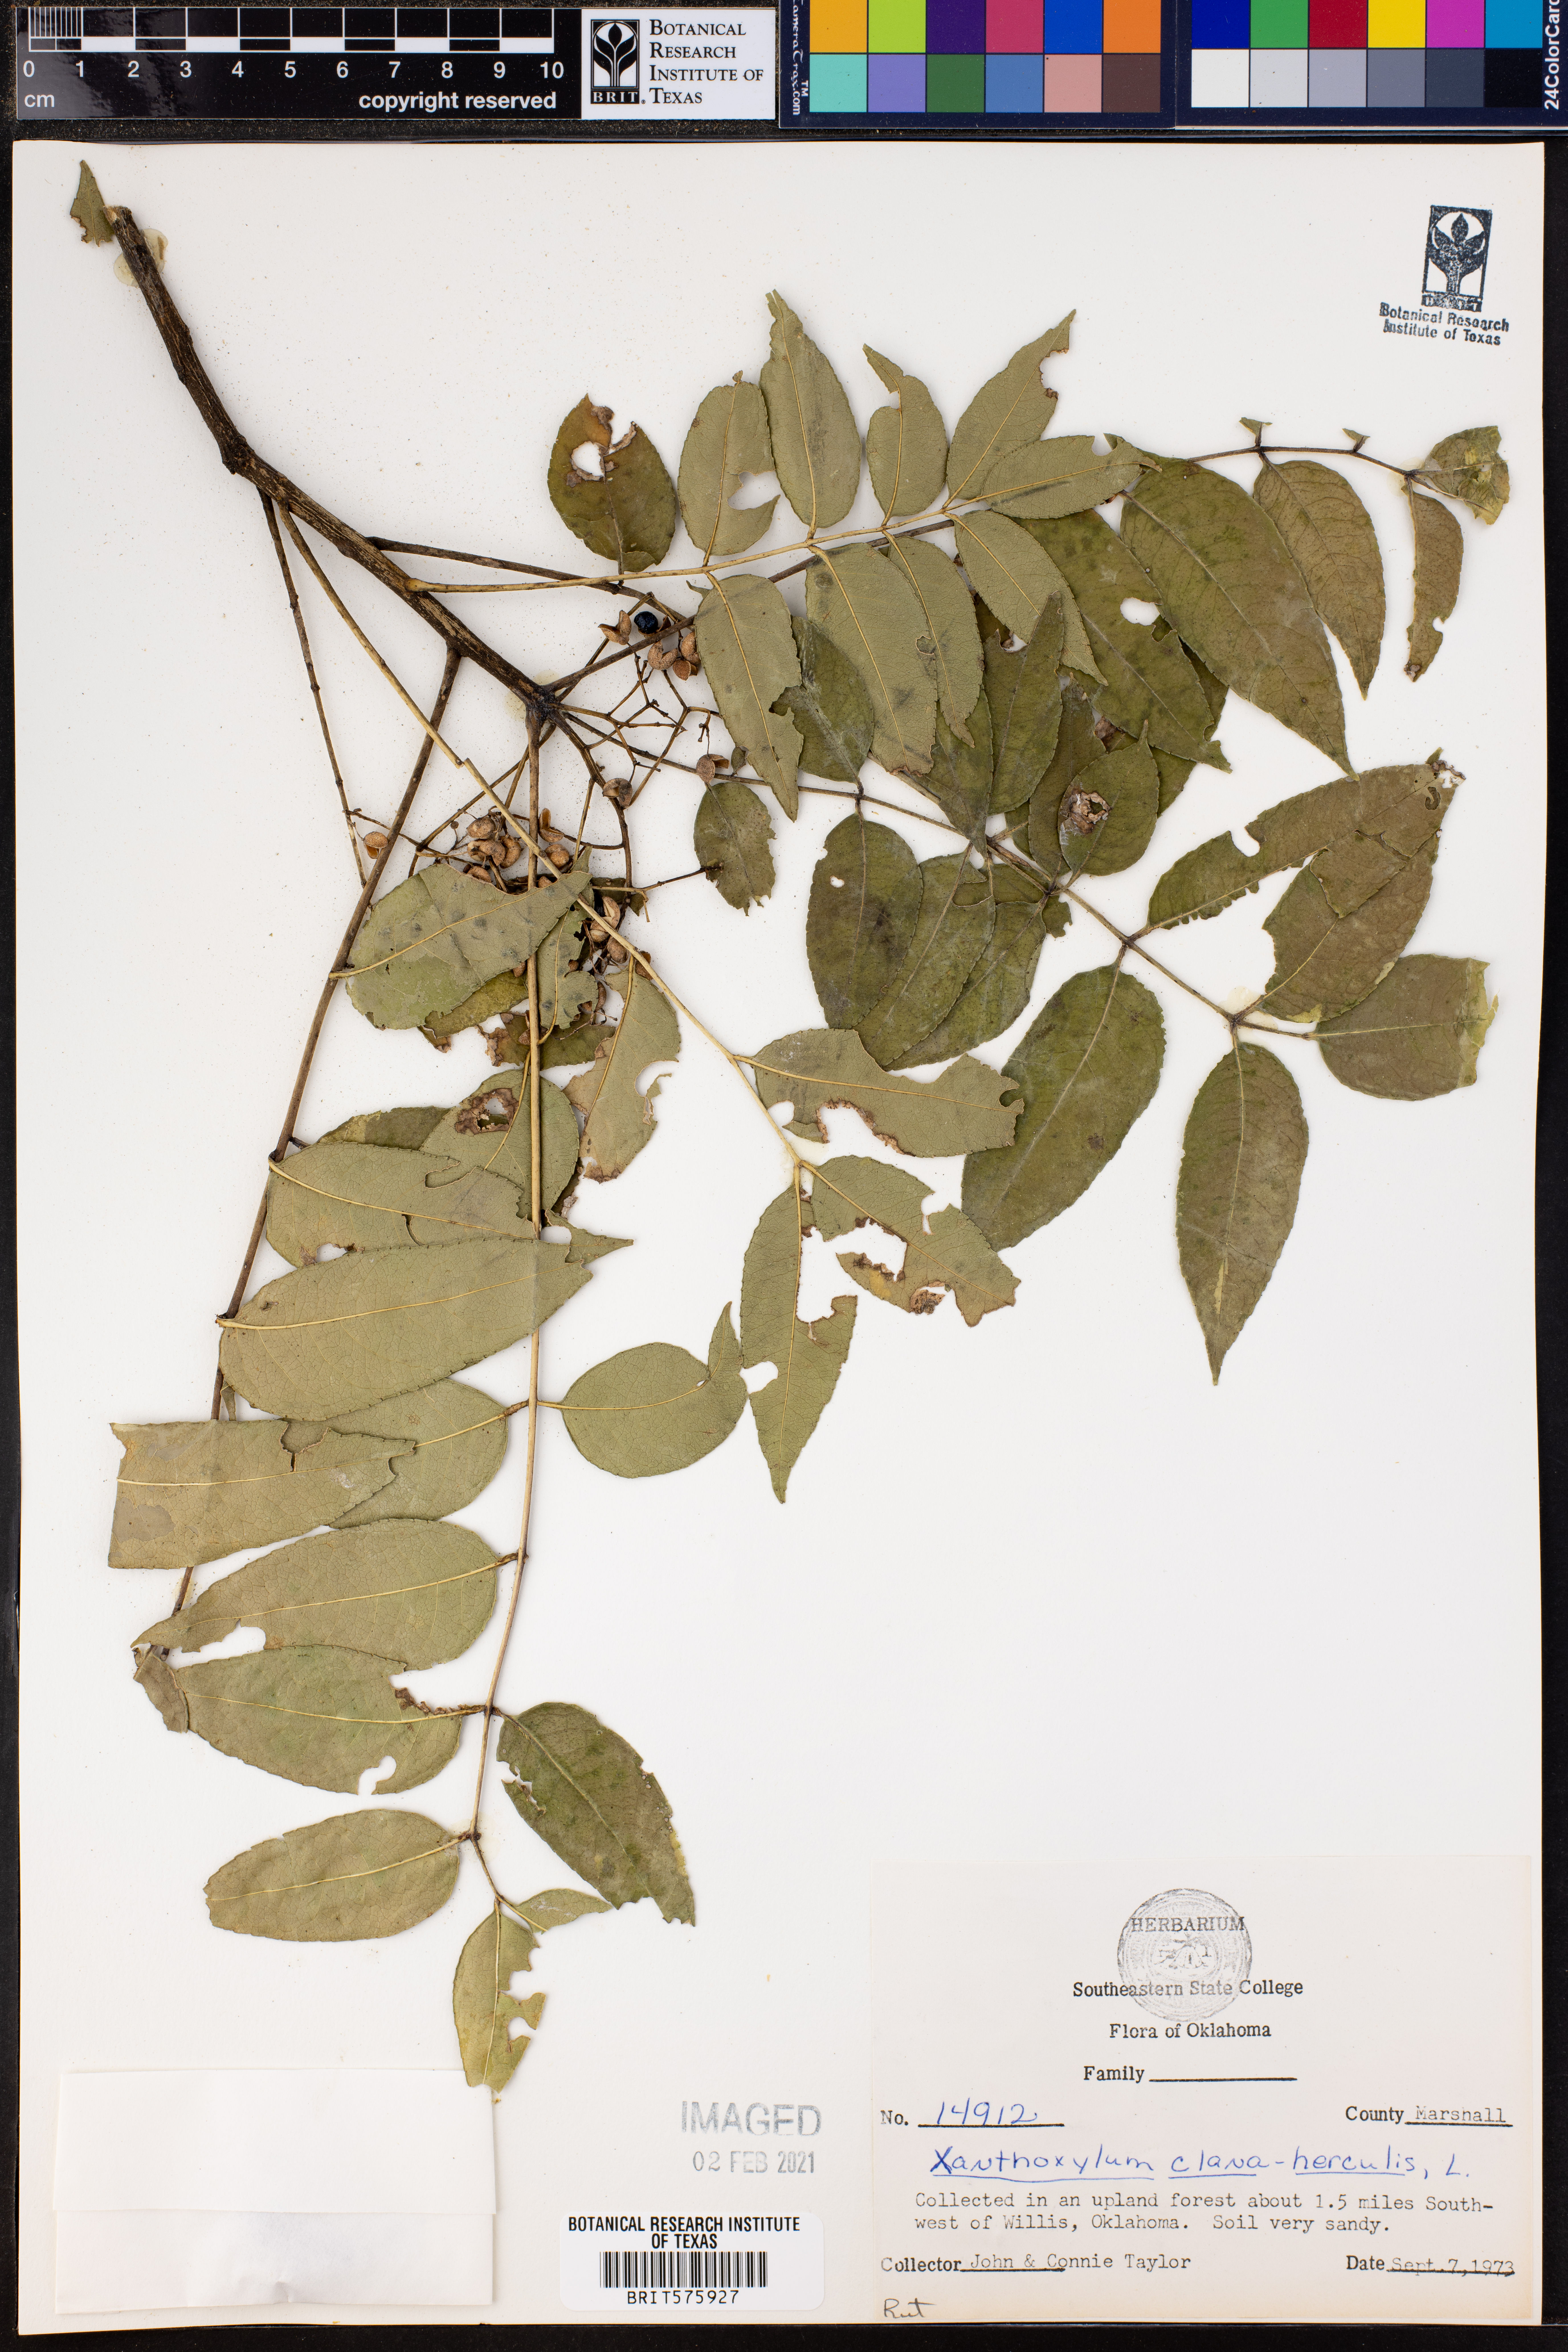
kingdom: Plantae
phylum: Tracheophyta
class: Magnoliopsida
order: Sapindales
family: Rutaceae
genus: Zanthoxylum
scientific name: Zanthoxylum avicennae
